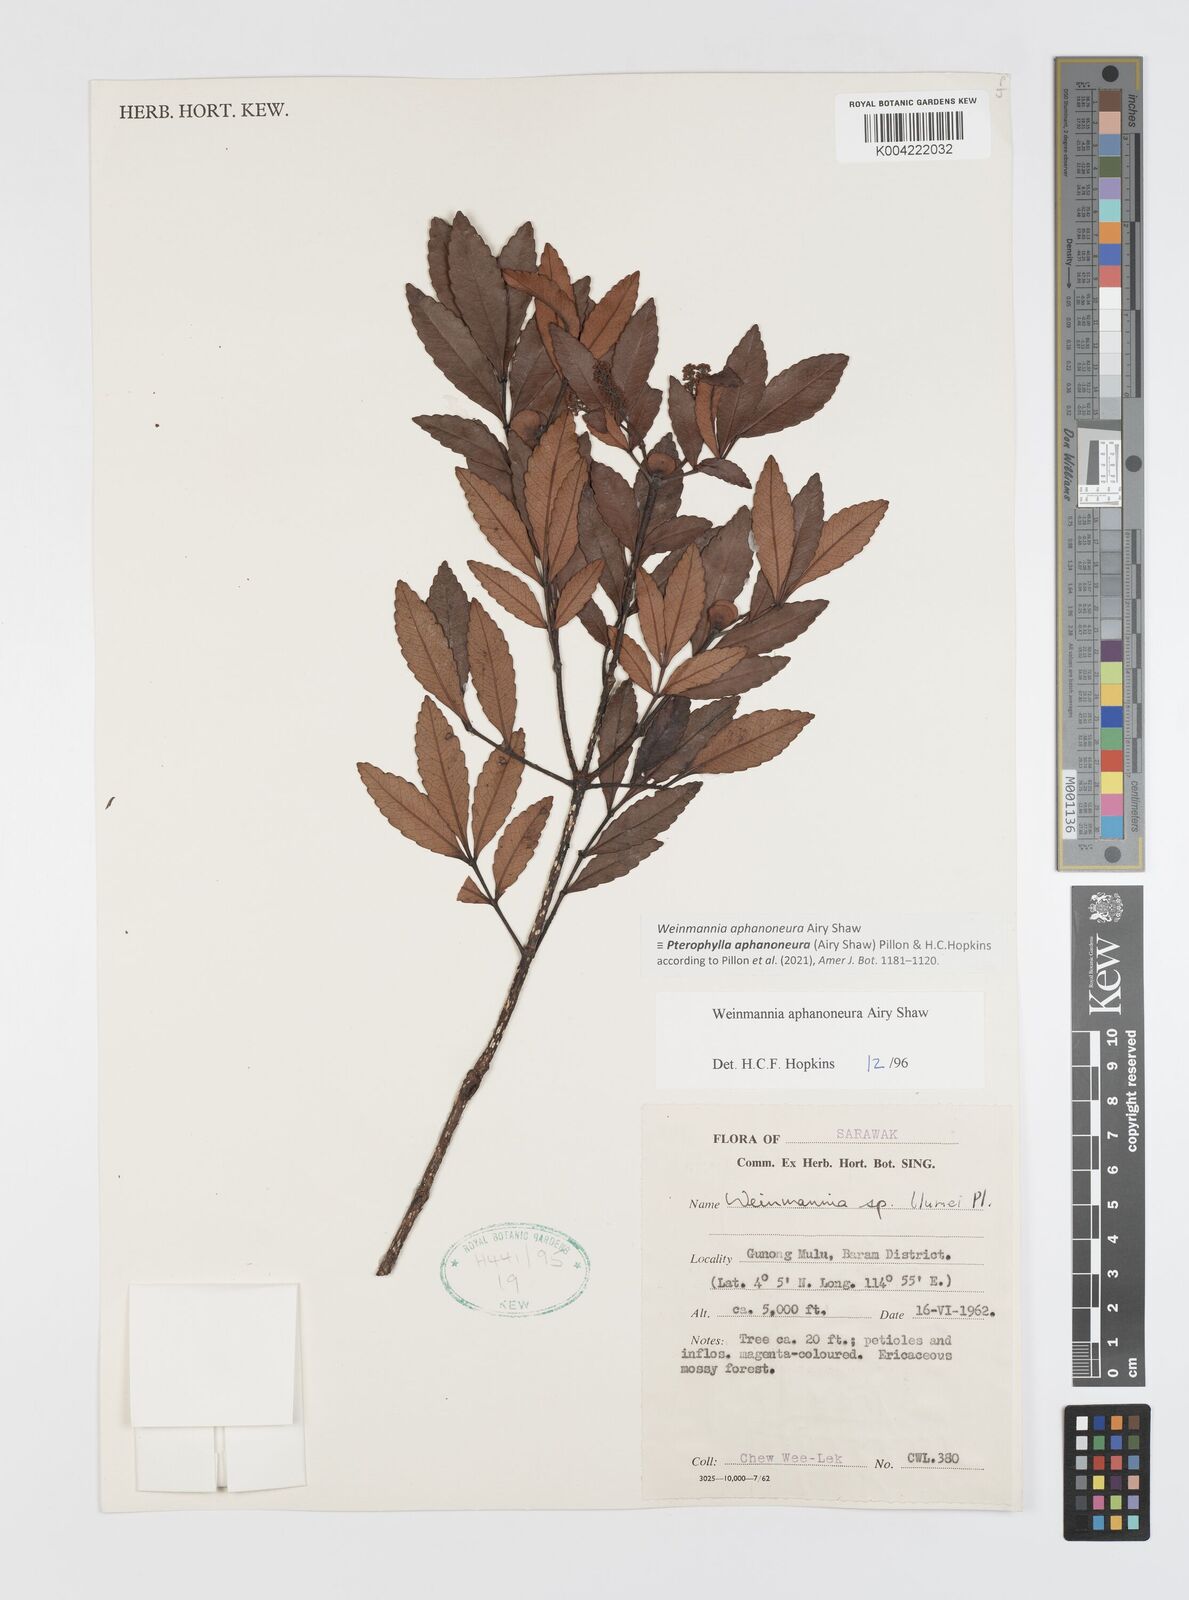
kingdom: Plantae
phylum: Tracheophyta
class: Magnoliopsida
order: Oxalidales
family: Cunoniaceae
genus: Pterophylla
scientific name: Pterophylla aphanoneura
